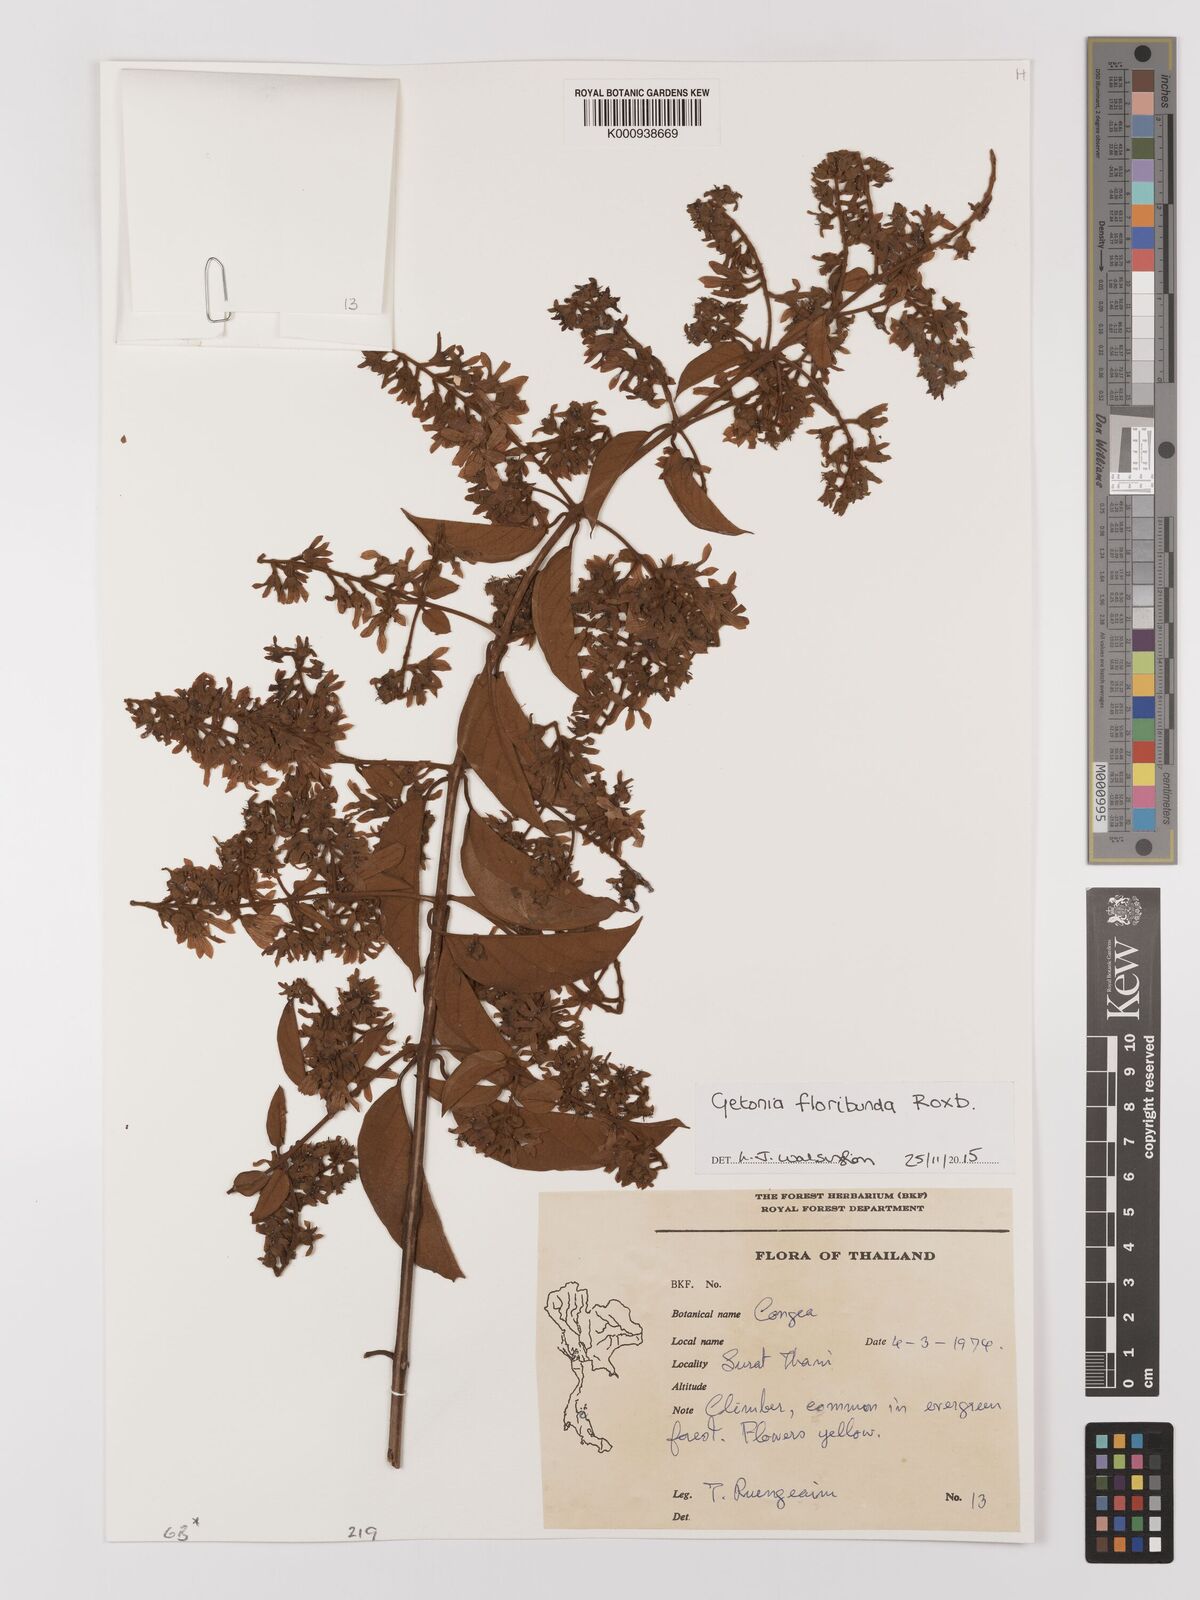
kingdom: Plantae
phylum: Tracheophyta
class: Magnoliopsida
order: Myrtales
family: Combretaceae
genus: Getonia
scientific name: Getonia floribunda
